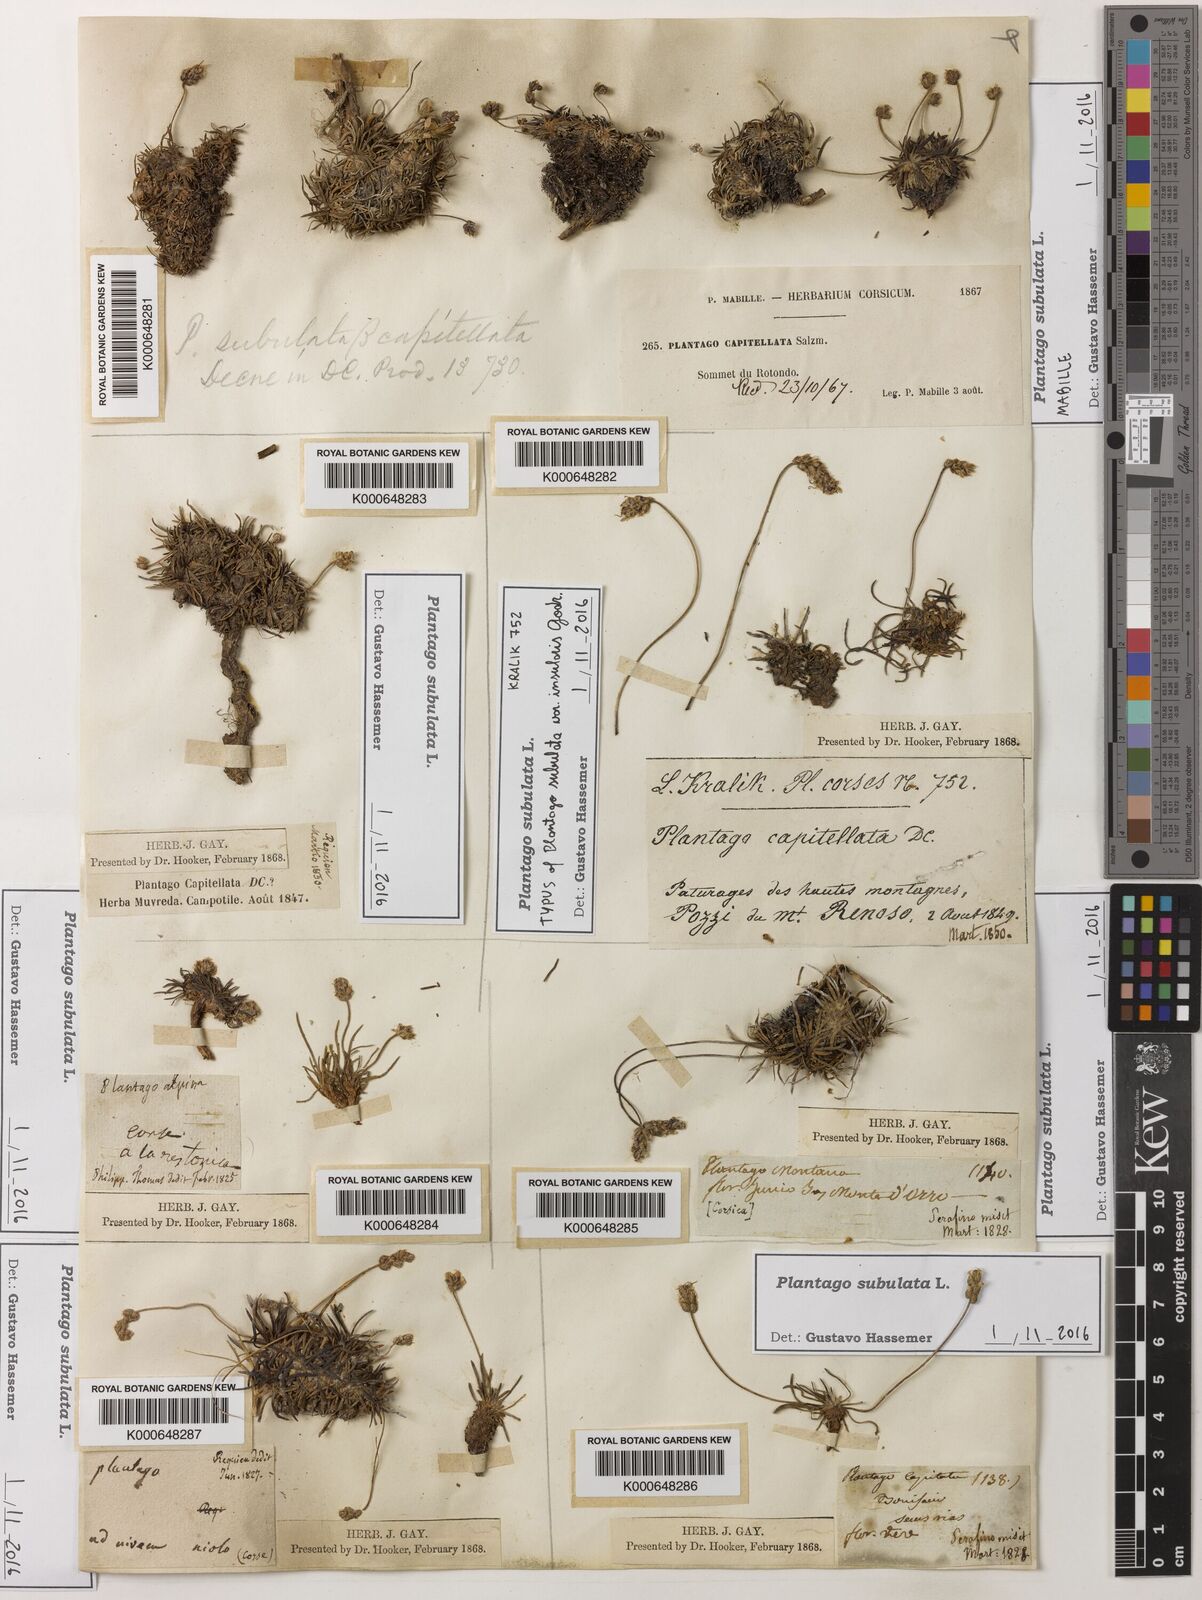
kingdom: Plantae
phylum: Tracheophyta
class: Magnoliopsida
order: Lamiales
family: Plantaginaceae
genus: Plantago
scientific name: Plantago subulata
